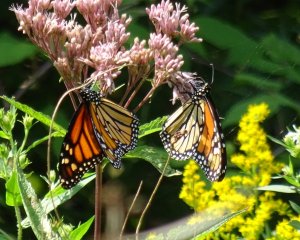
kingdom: Animalia
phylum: Arthropoda
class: Insecta
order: Lepidoptera
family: Nymphalidae
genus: Danaus
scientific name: Danaus plexippus
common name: Monarch
